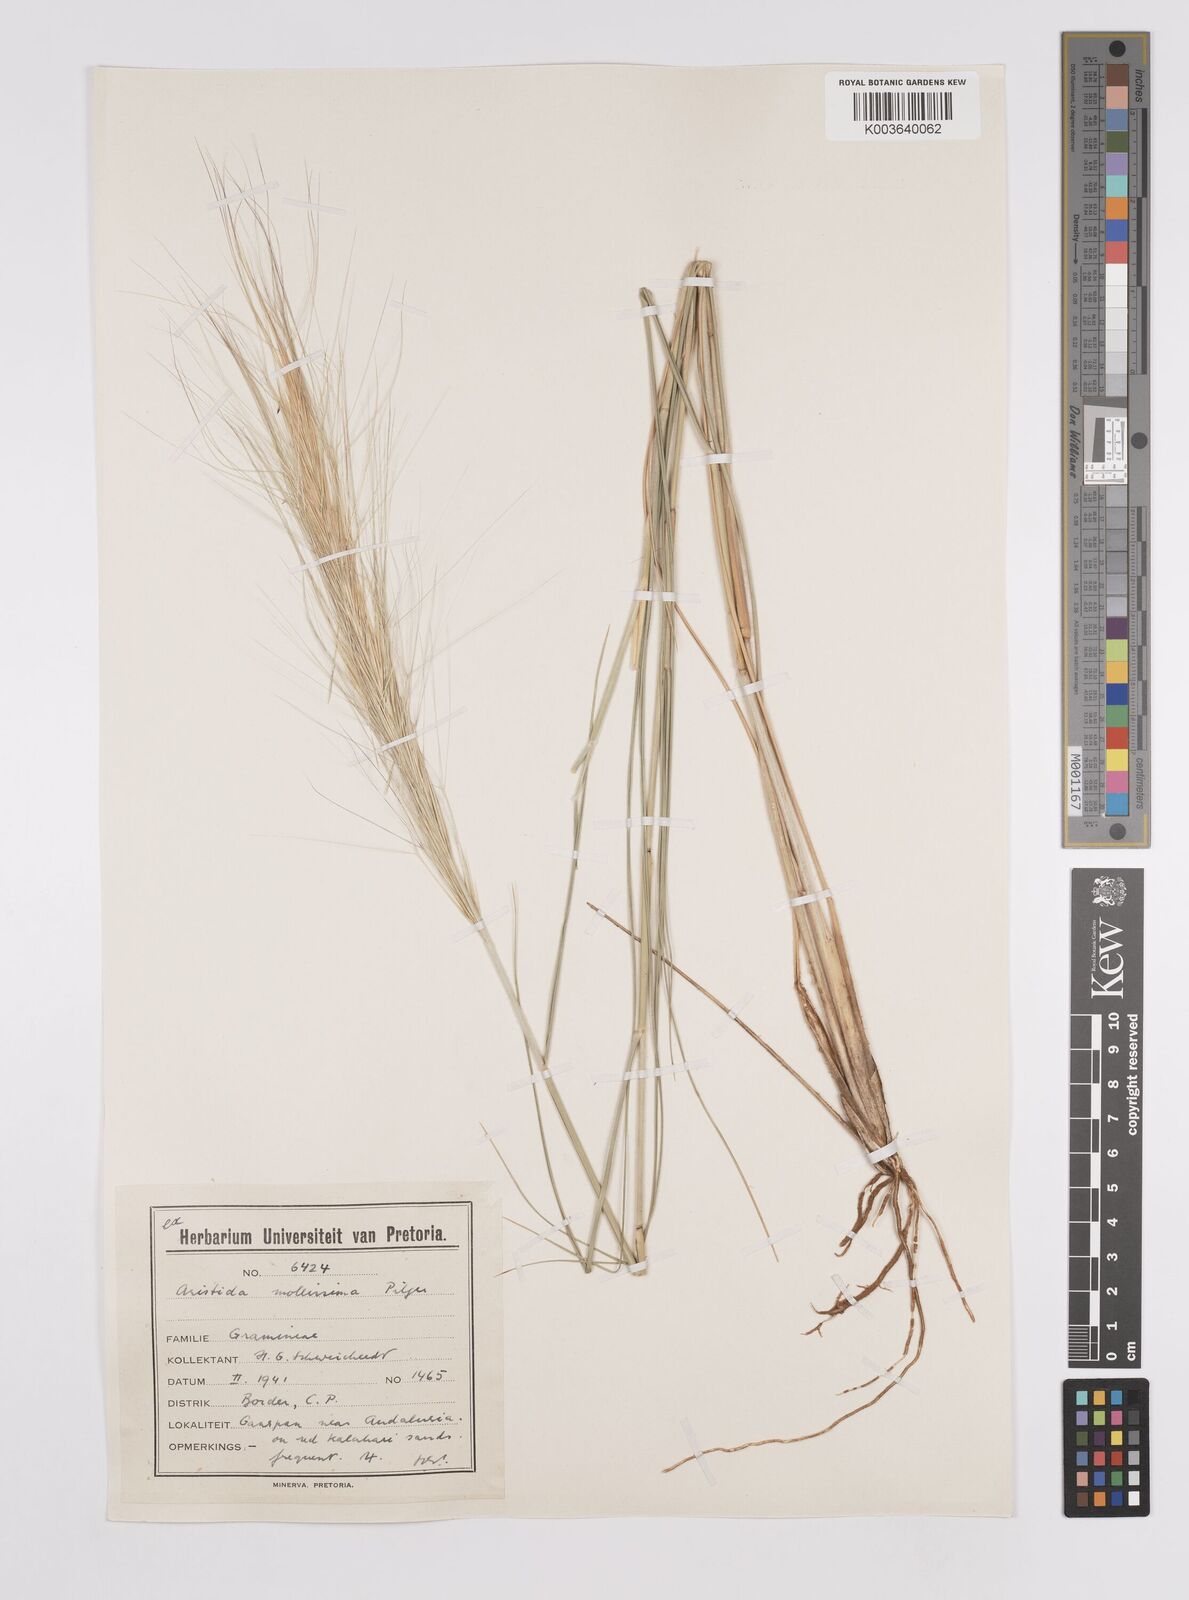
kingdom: Plantae
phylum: Tracheophyta
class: Liliopsida
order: Poales
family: Poaceae
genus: Aristida
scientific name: Aristida mollissima
